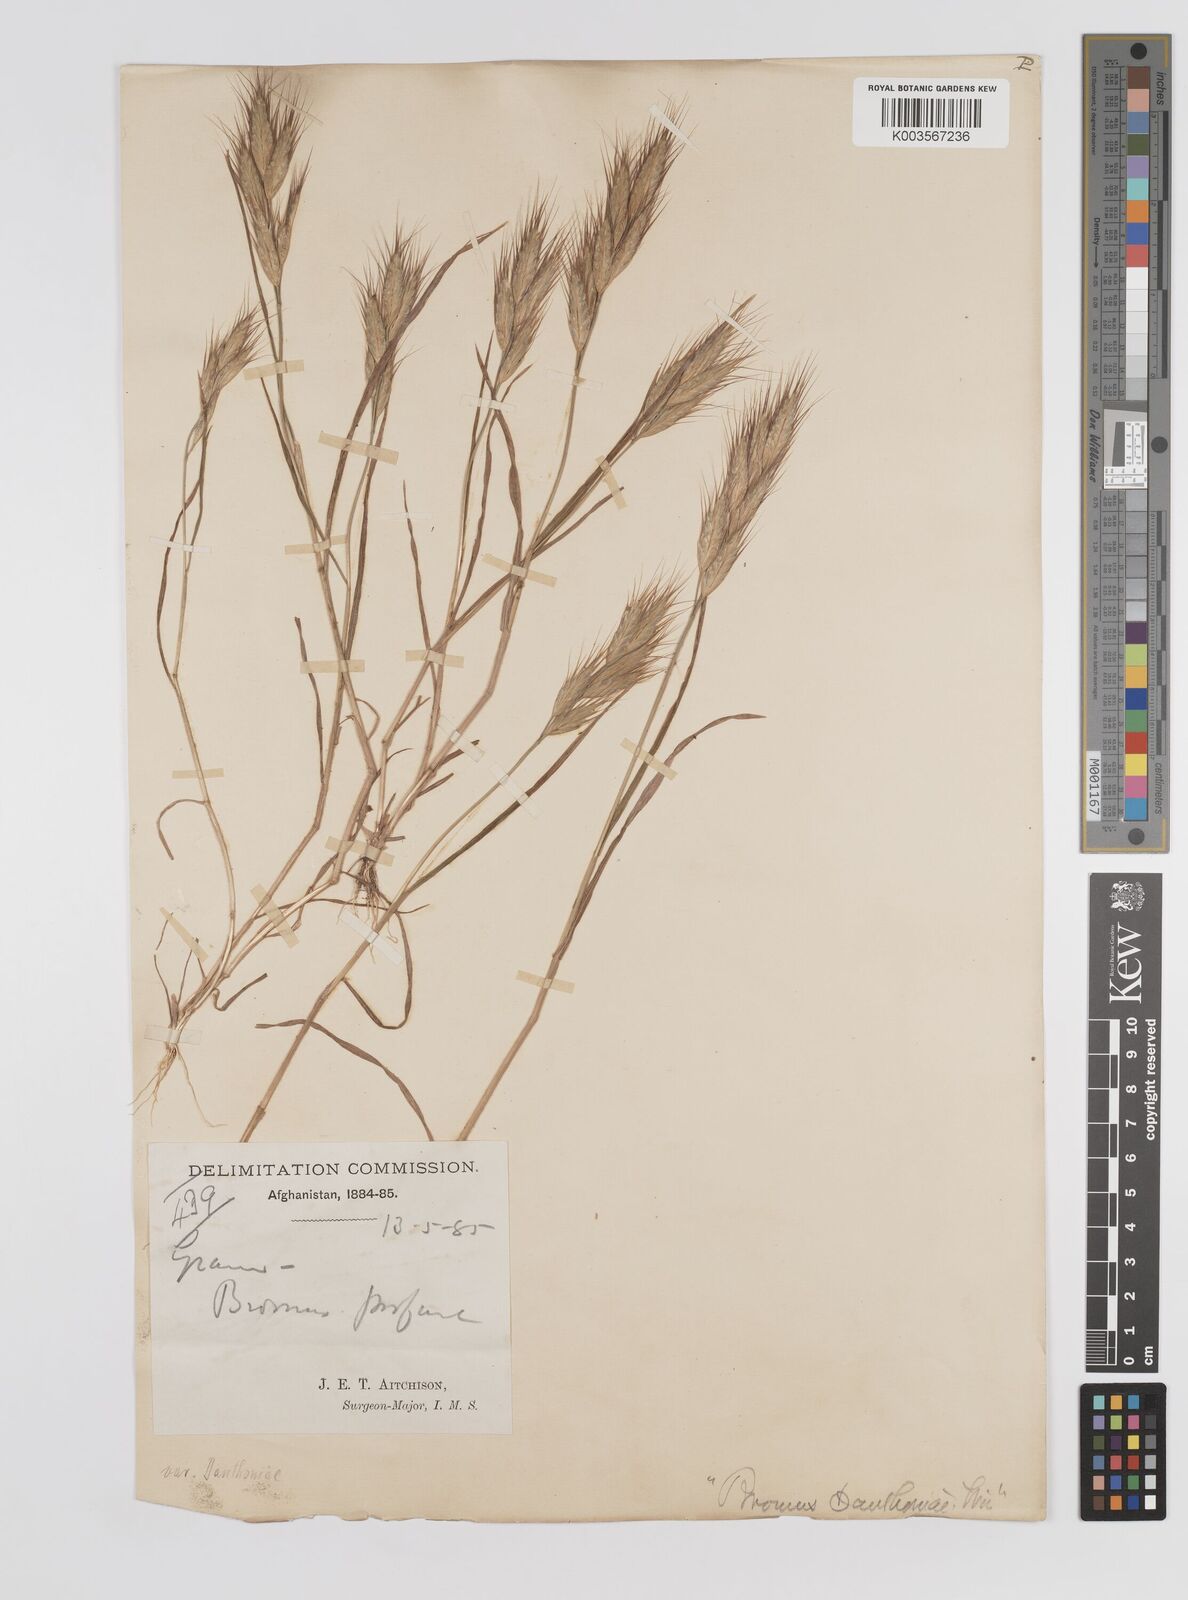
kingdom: Plantae
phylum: Tracheophyta
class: Liliopsida
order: Poales
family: Poaceae
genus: Bromus
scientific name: Bromus danthoniae
